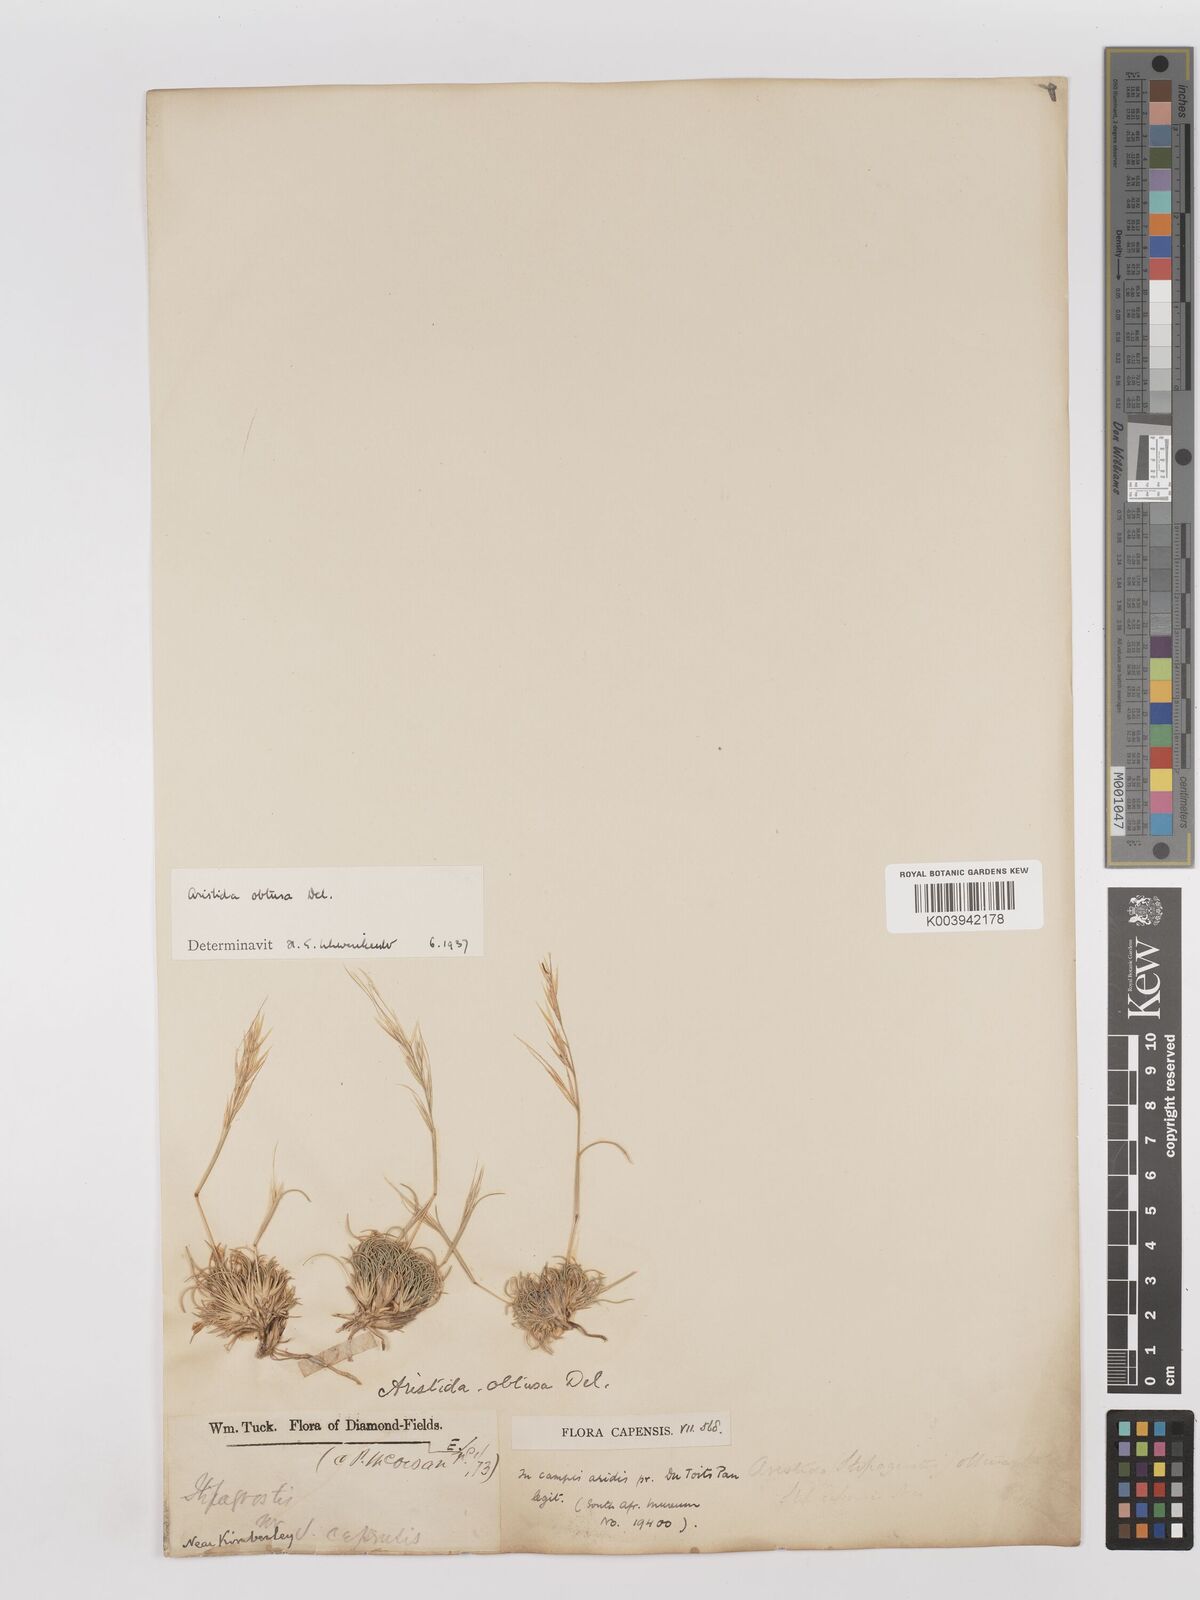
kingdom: Plantae
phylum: Tracheophyta
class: Liliopsida
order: Poales
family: Poaceae
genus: Stipagrostis
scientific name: Stipagrostis obtusa
